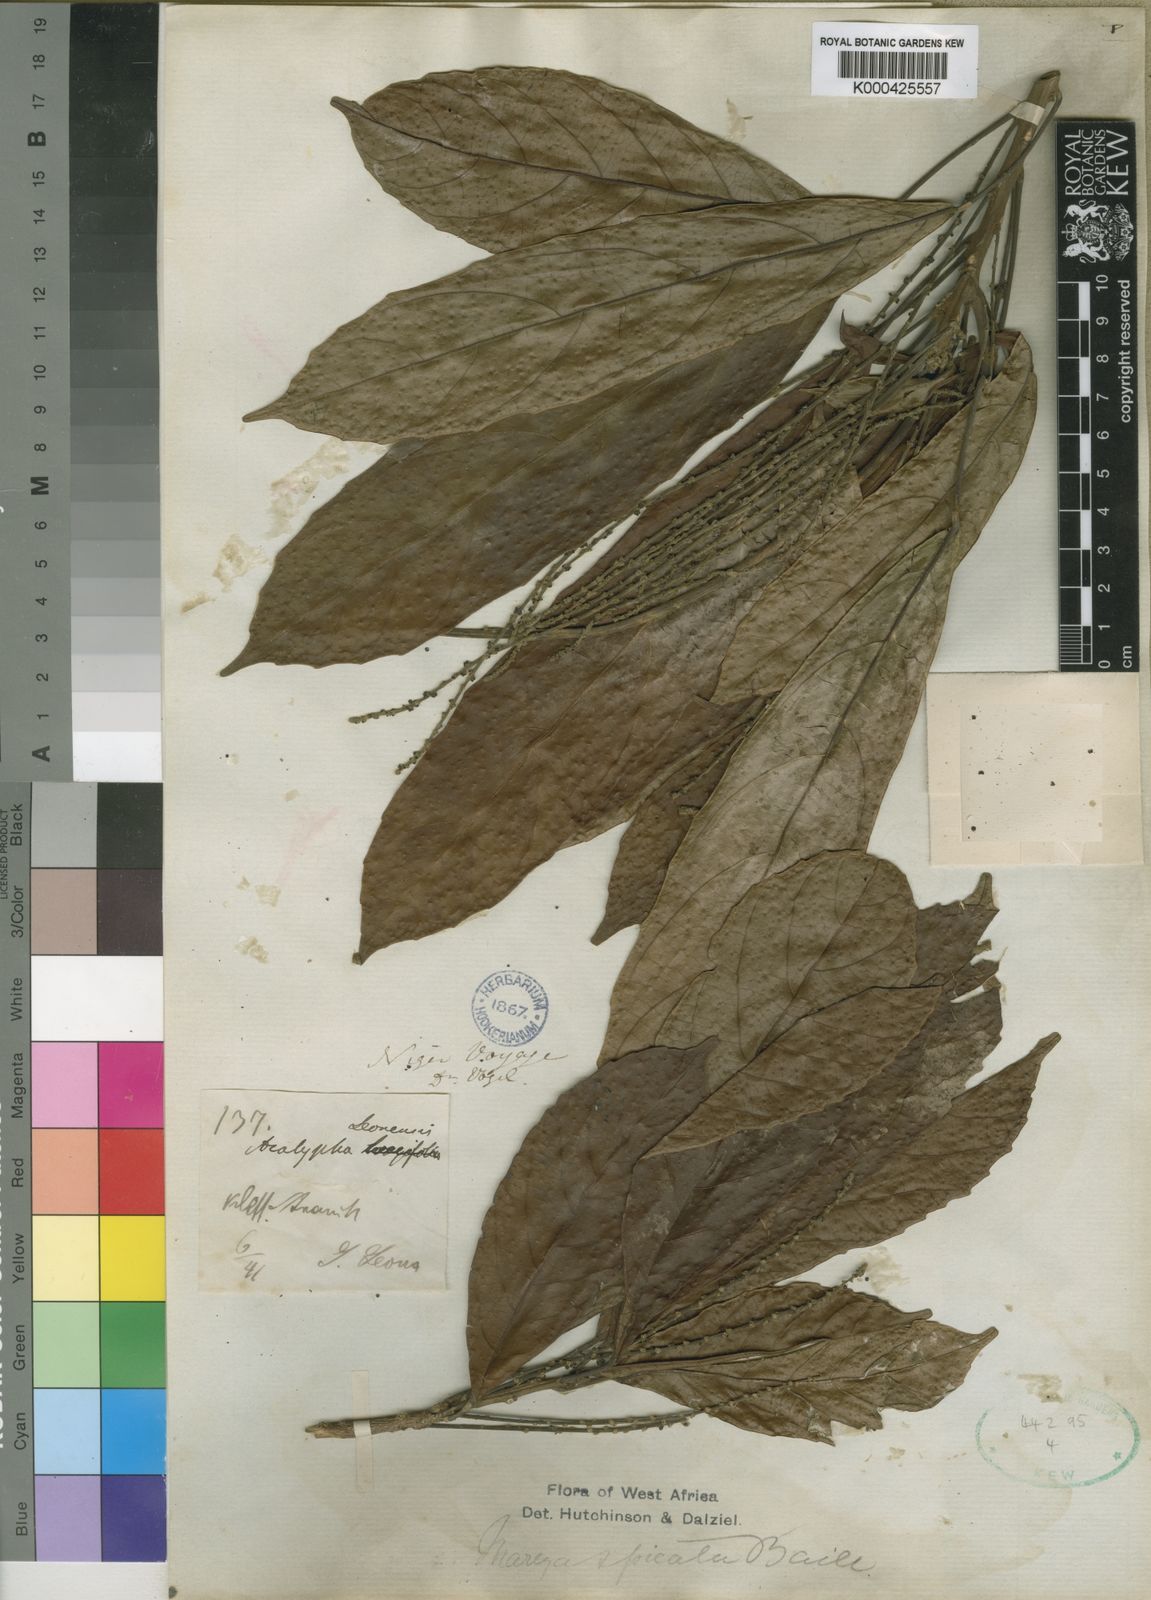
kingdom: Plantae
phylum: Tracheophyta
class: Magnoliopsida
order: Malpighiales
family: Euphorbiaceae
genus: Mareya
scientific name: Mareya micrantha
